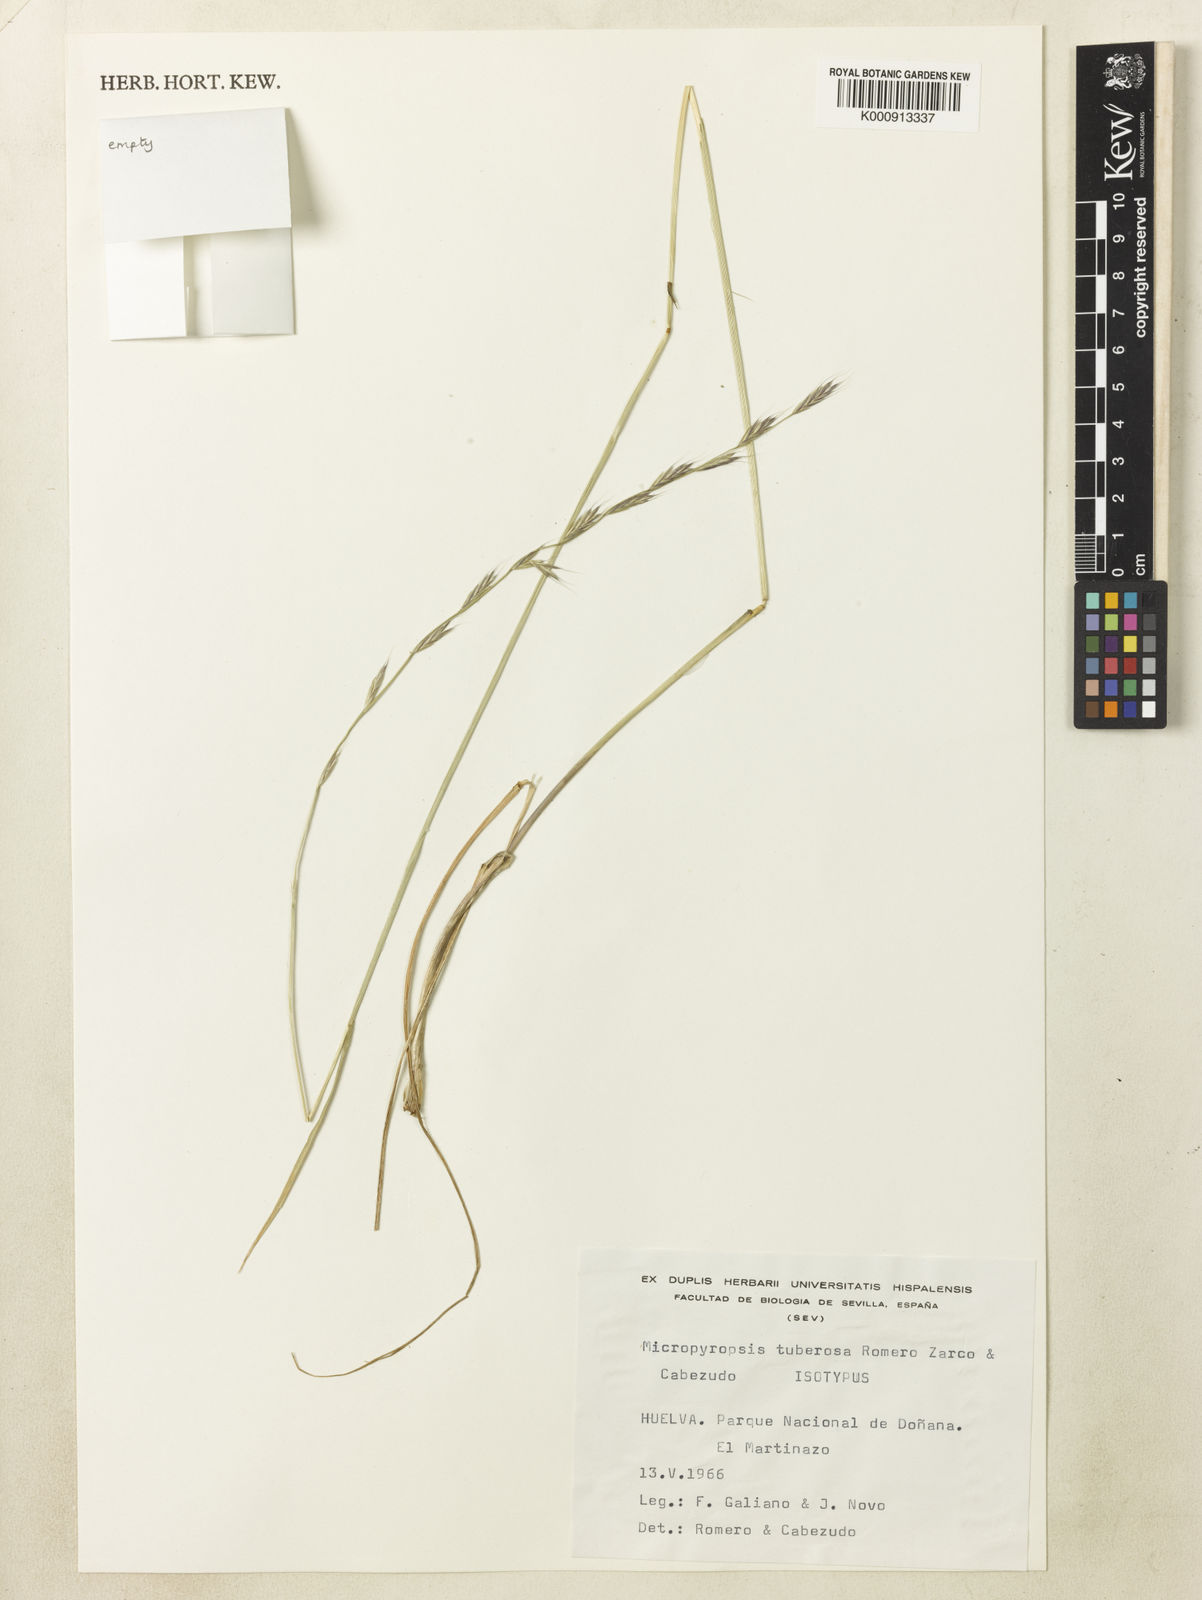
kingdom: Plantae
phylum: Tracheophyta
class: Liliopsida
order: Poales
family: Poaceae
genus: Lolium
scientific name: Lolium tuberosum
